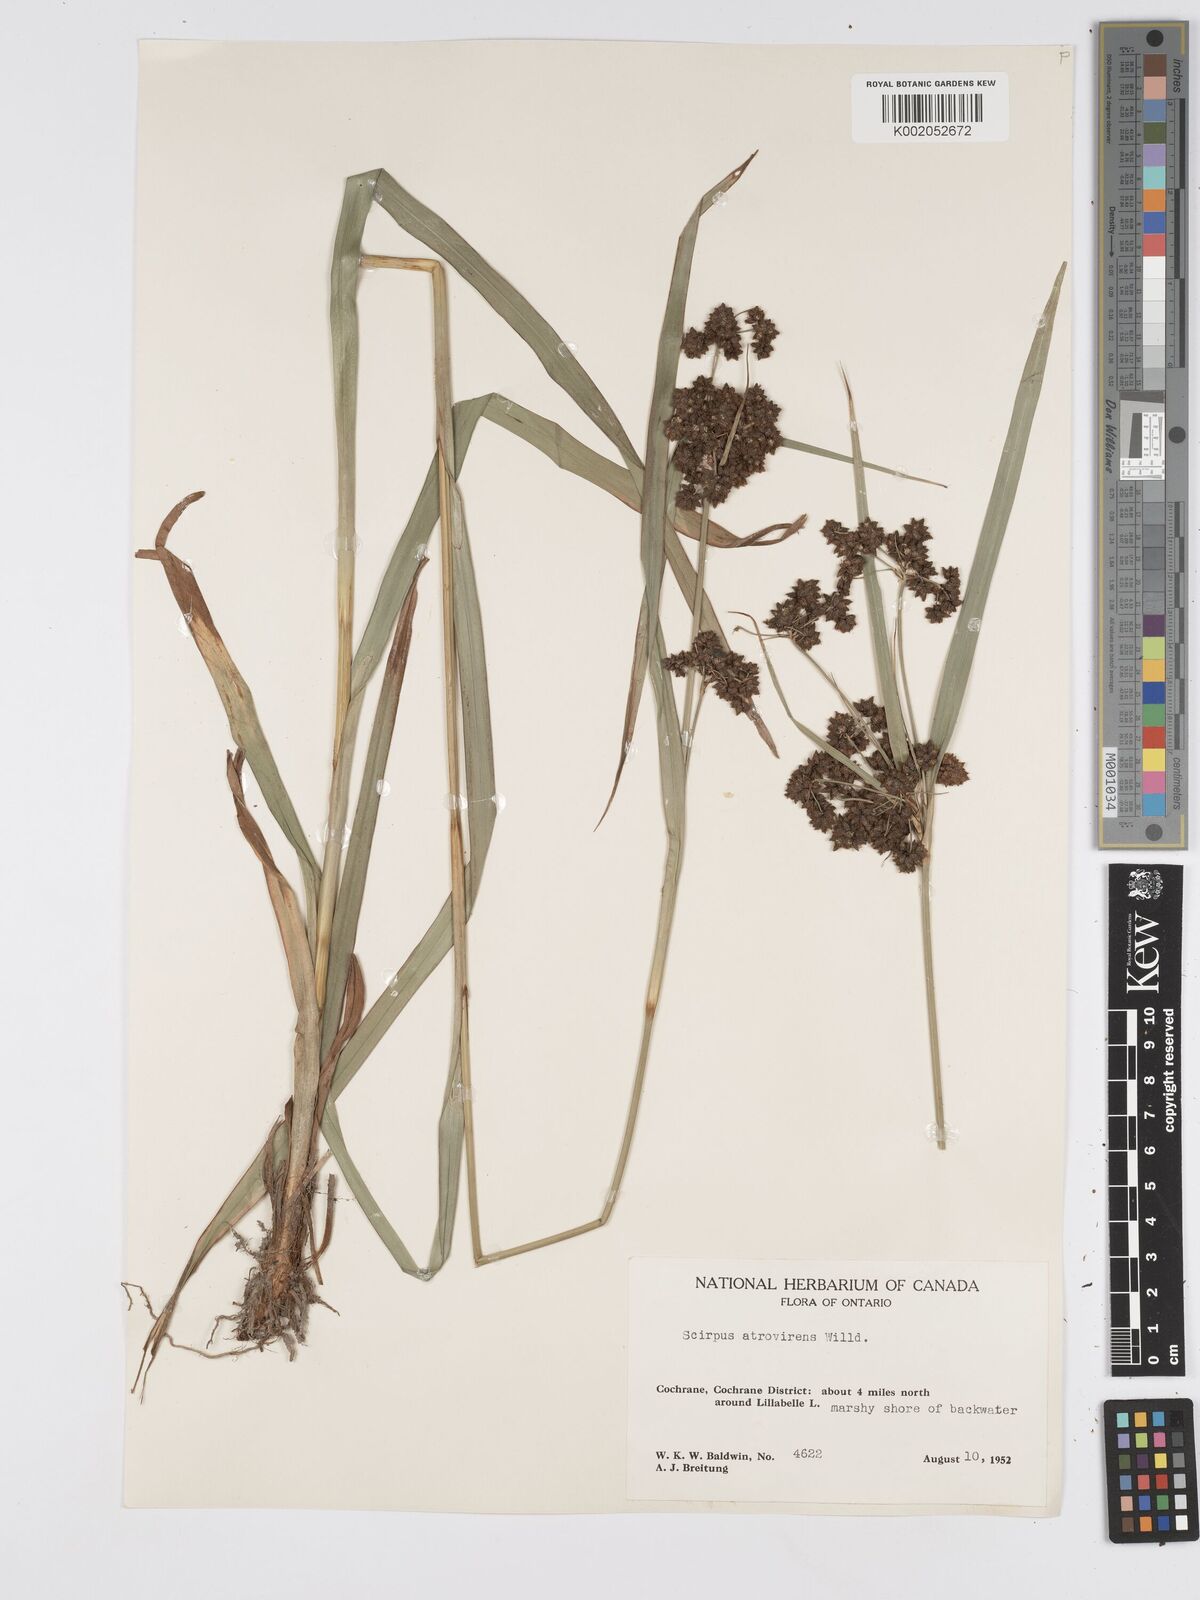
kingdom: Plantae
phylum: Tracheophyta
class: Liliopsida
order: Poales
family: Cyperaceae
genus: Scirpus
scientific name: Scirpus atrovirens
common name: Black bulrush
